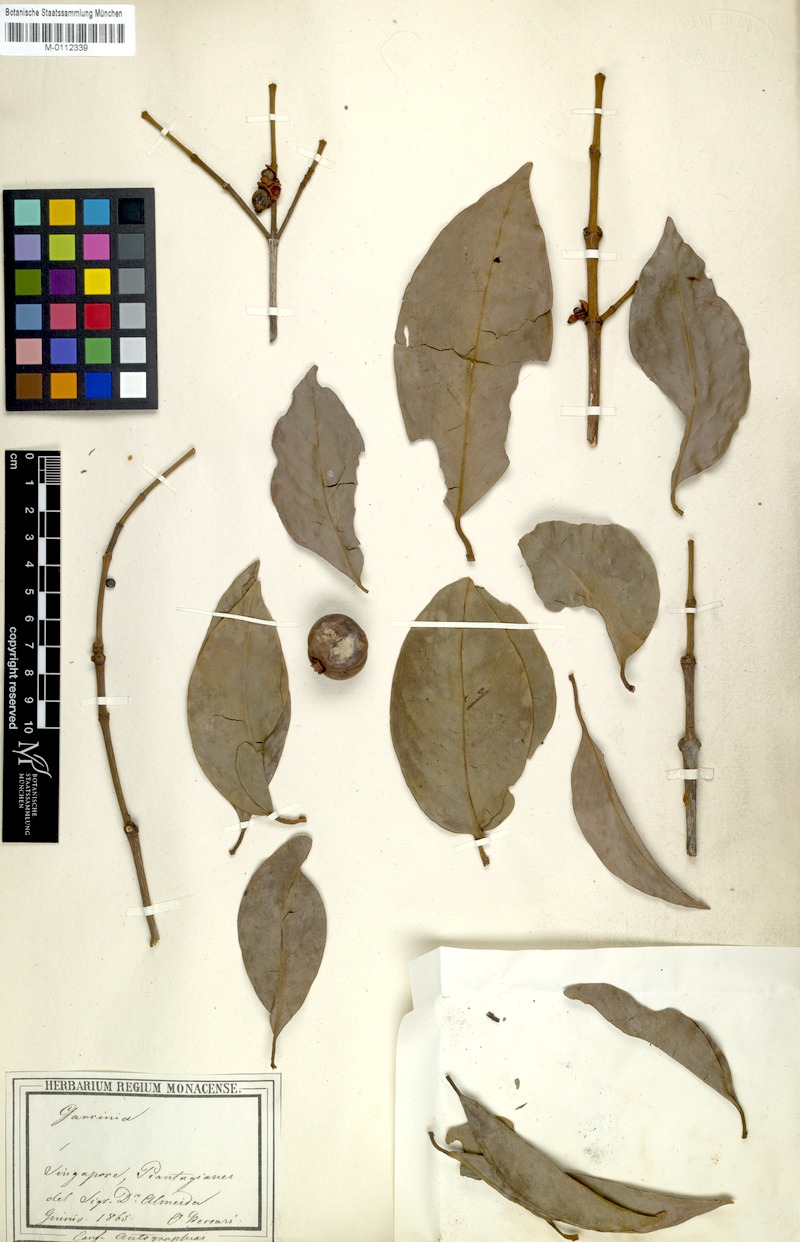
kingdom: Plantae
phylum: Tracheophyta
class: Magnoliopsida
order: Malpighiales
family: Clusiaceae
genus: Garcinia
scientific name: Garcinia
